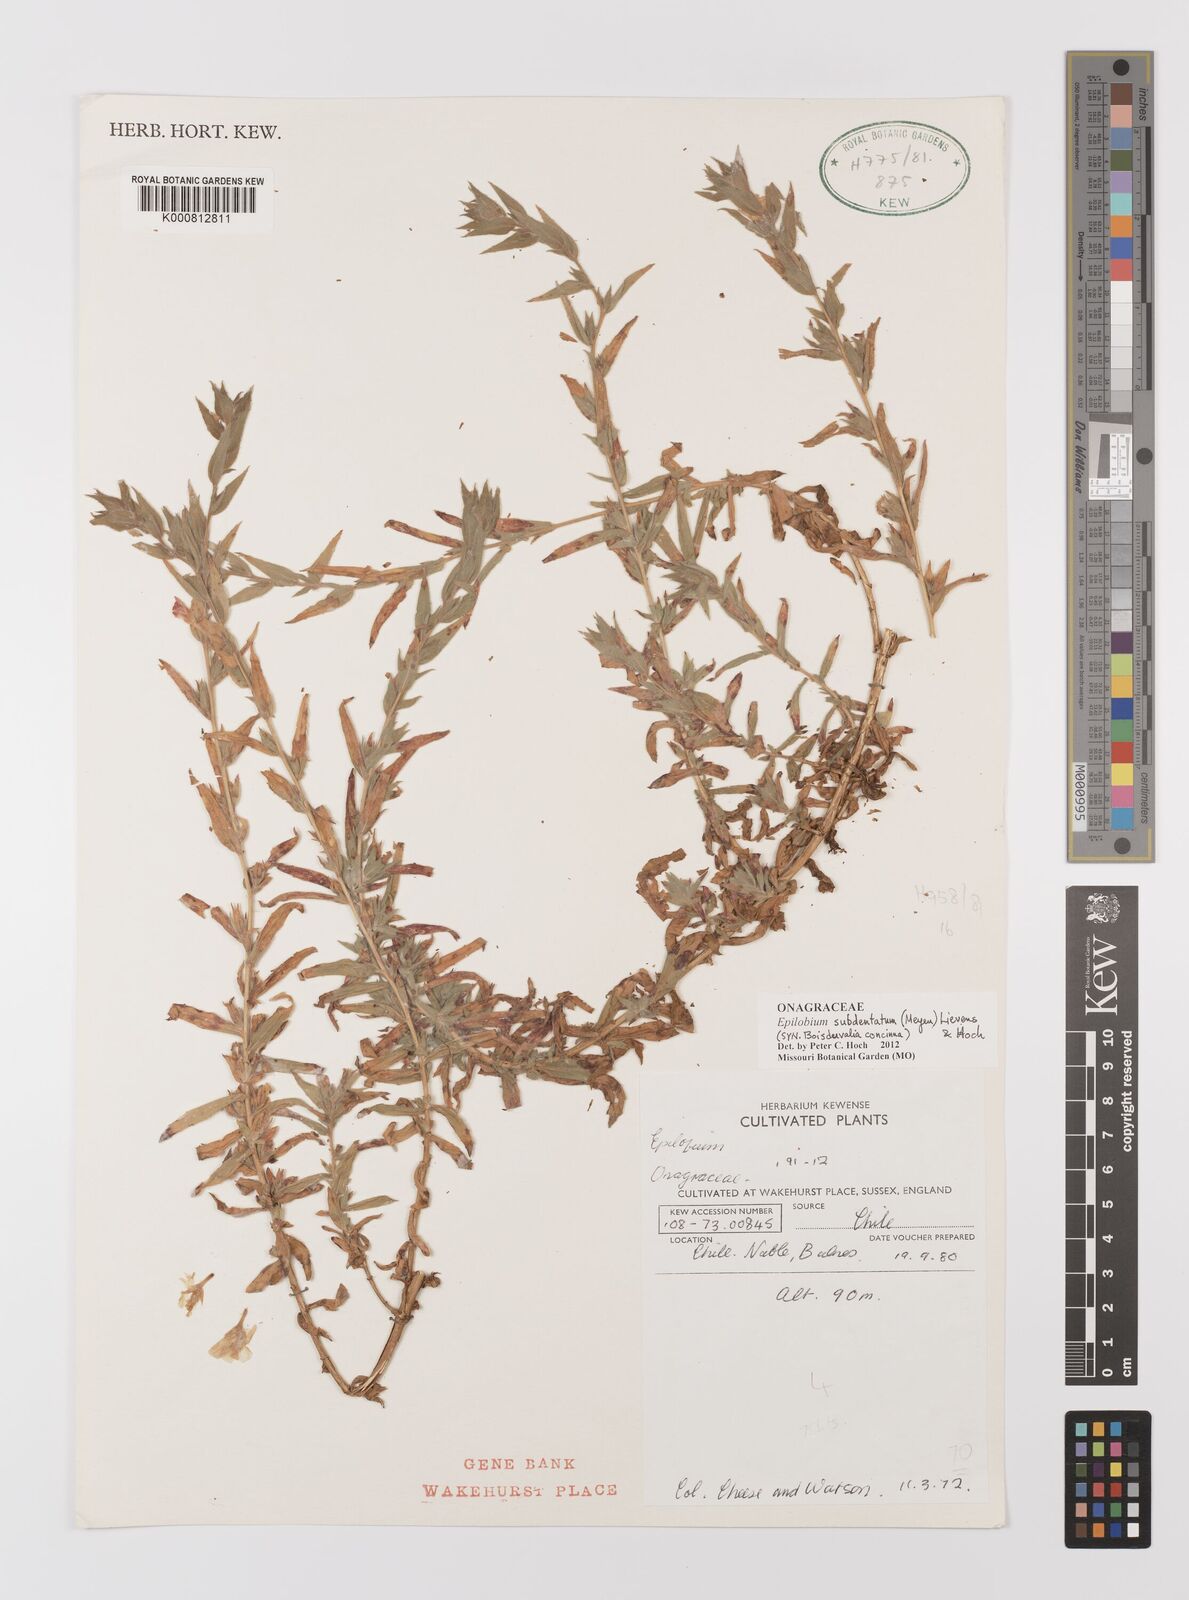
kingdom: Plantae
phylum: Tracheophyta
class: Magnoliopsida
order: Myrtales
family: Onagraceae
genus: Epilobium
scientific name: Epilobium subdentatum
